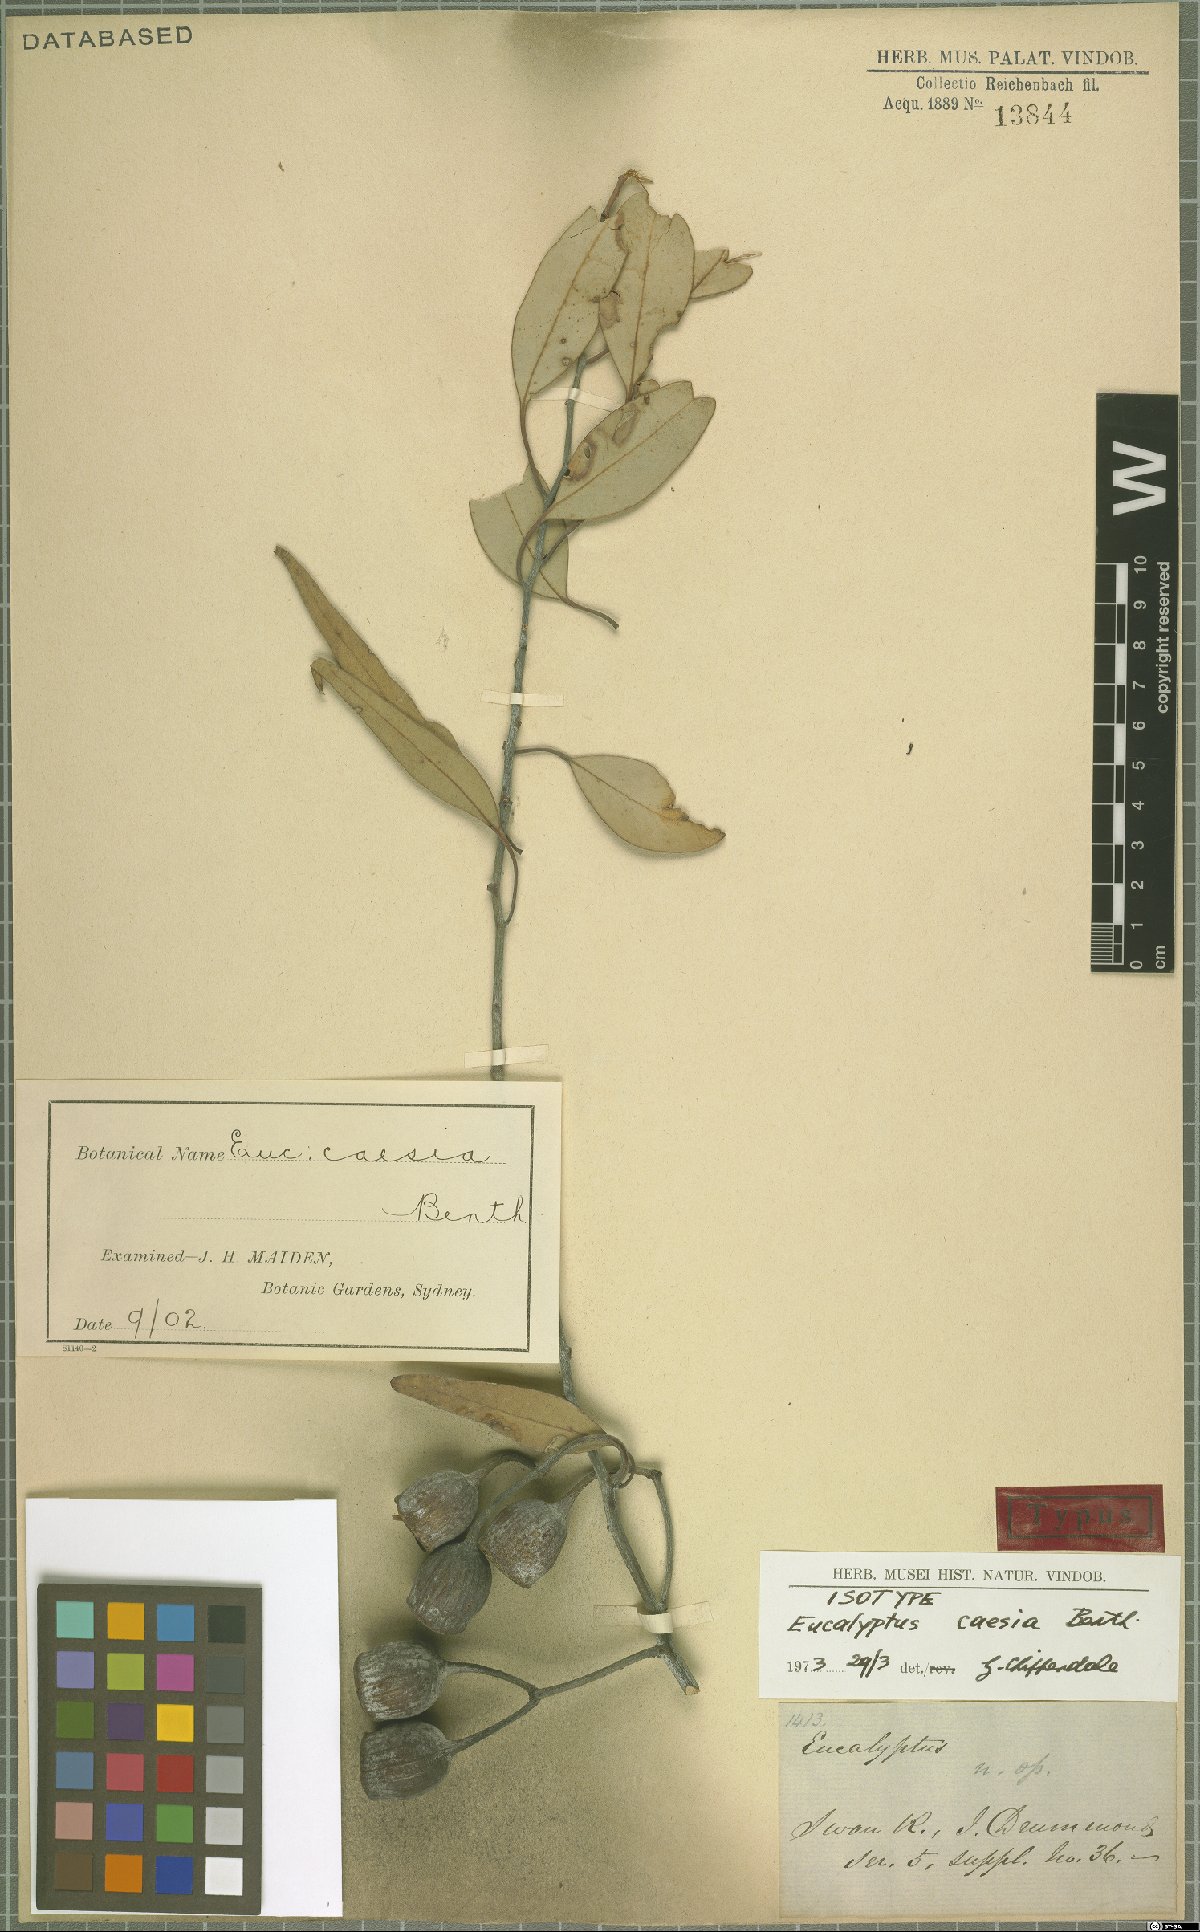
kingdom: Plantae
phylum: Tracheophyta
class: Magnoliopsida
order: Myrtales
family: Myrtaceae
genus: Eucalyptus
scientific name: Eucalyptus caesia
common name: Silver princess
